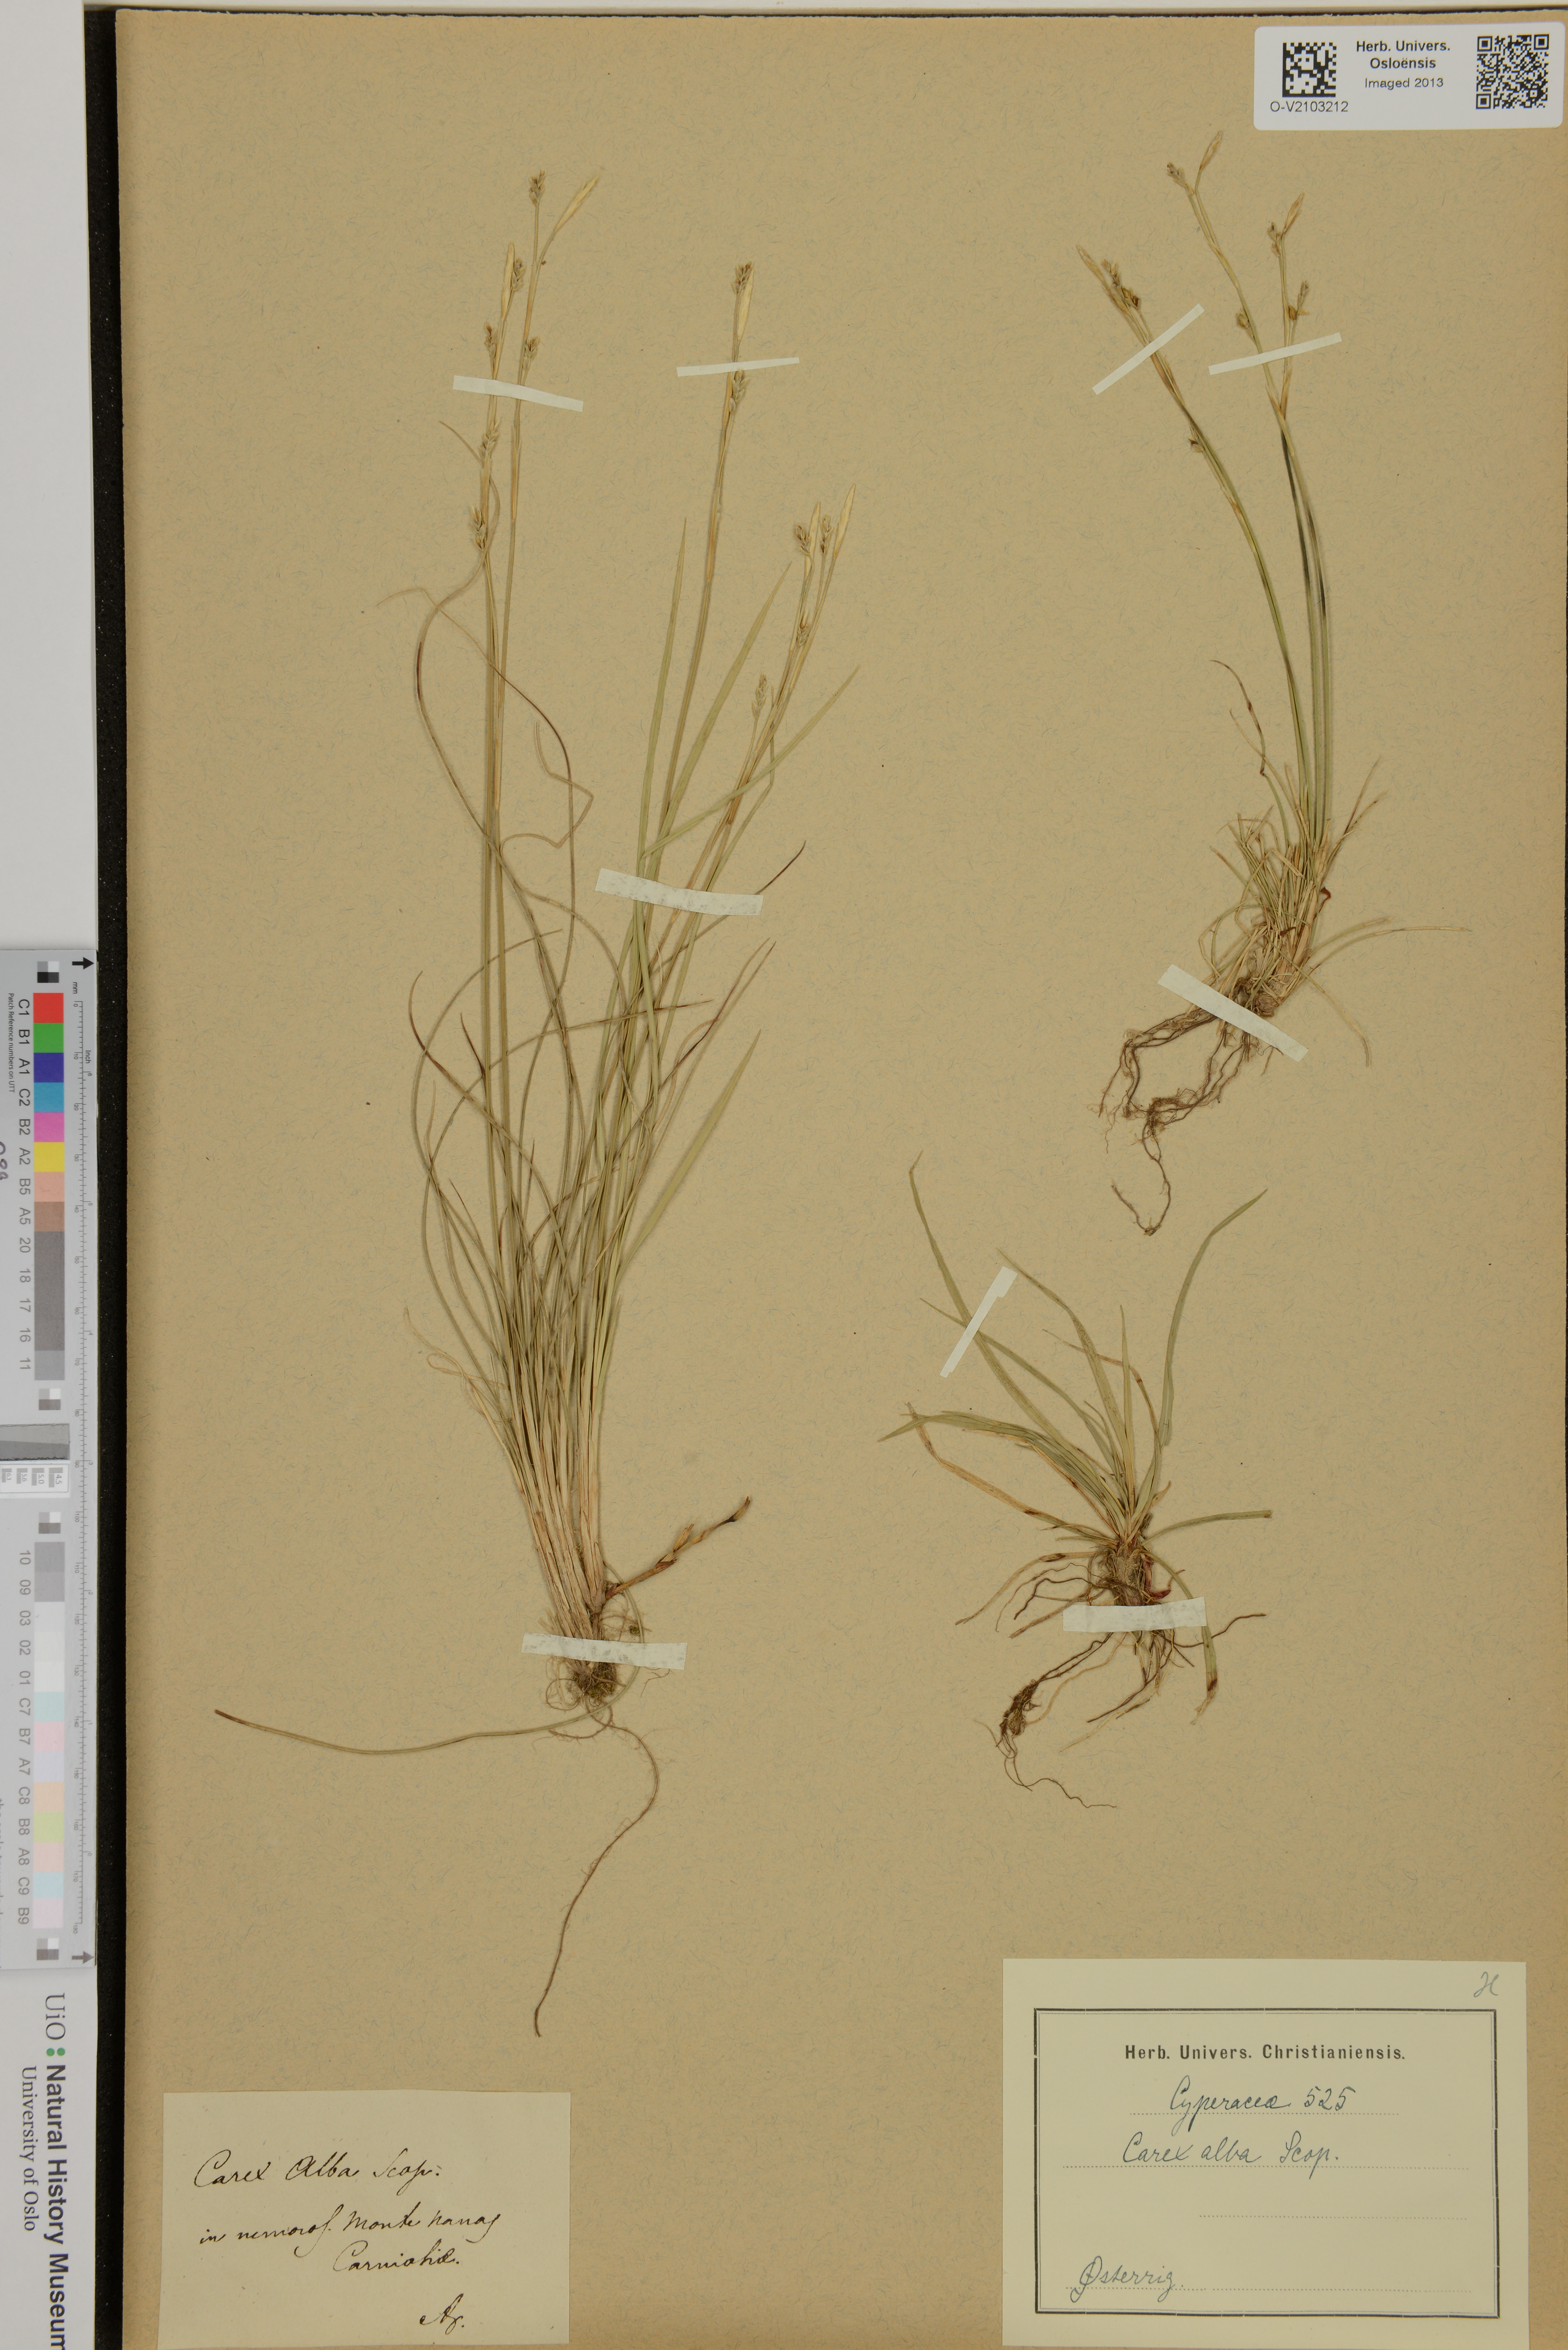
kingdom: Plantae
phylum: Tracheophyta
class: Liliopsida
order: Poales
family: Cyperaceae
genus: Carex
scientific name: Carex alba
